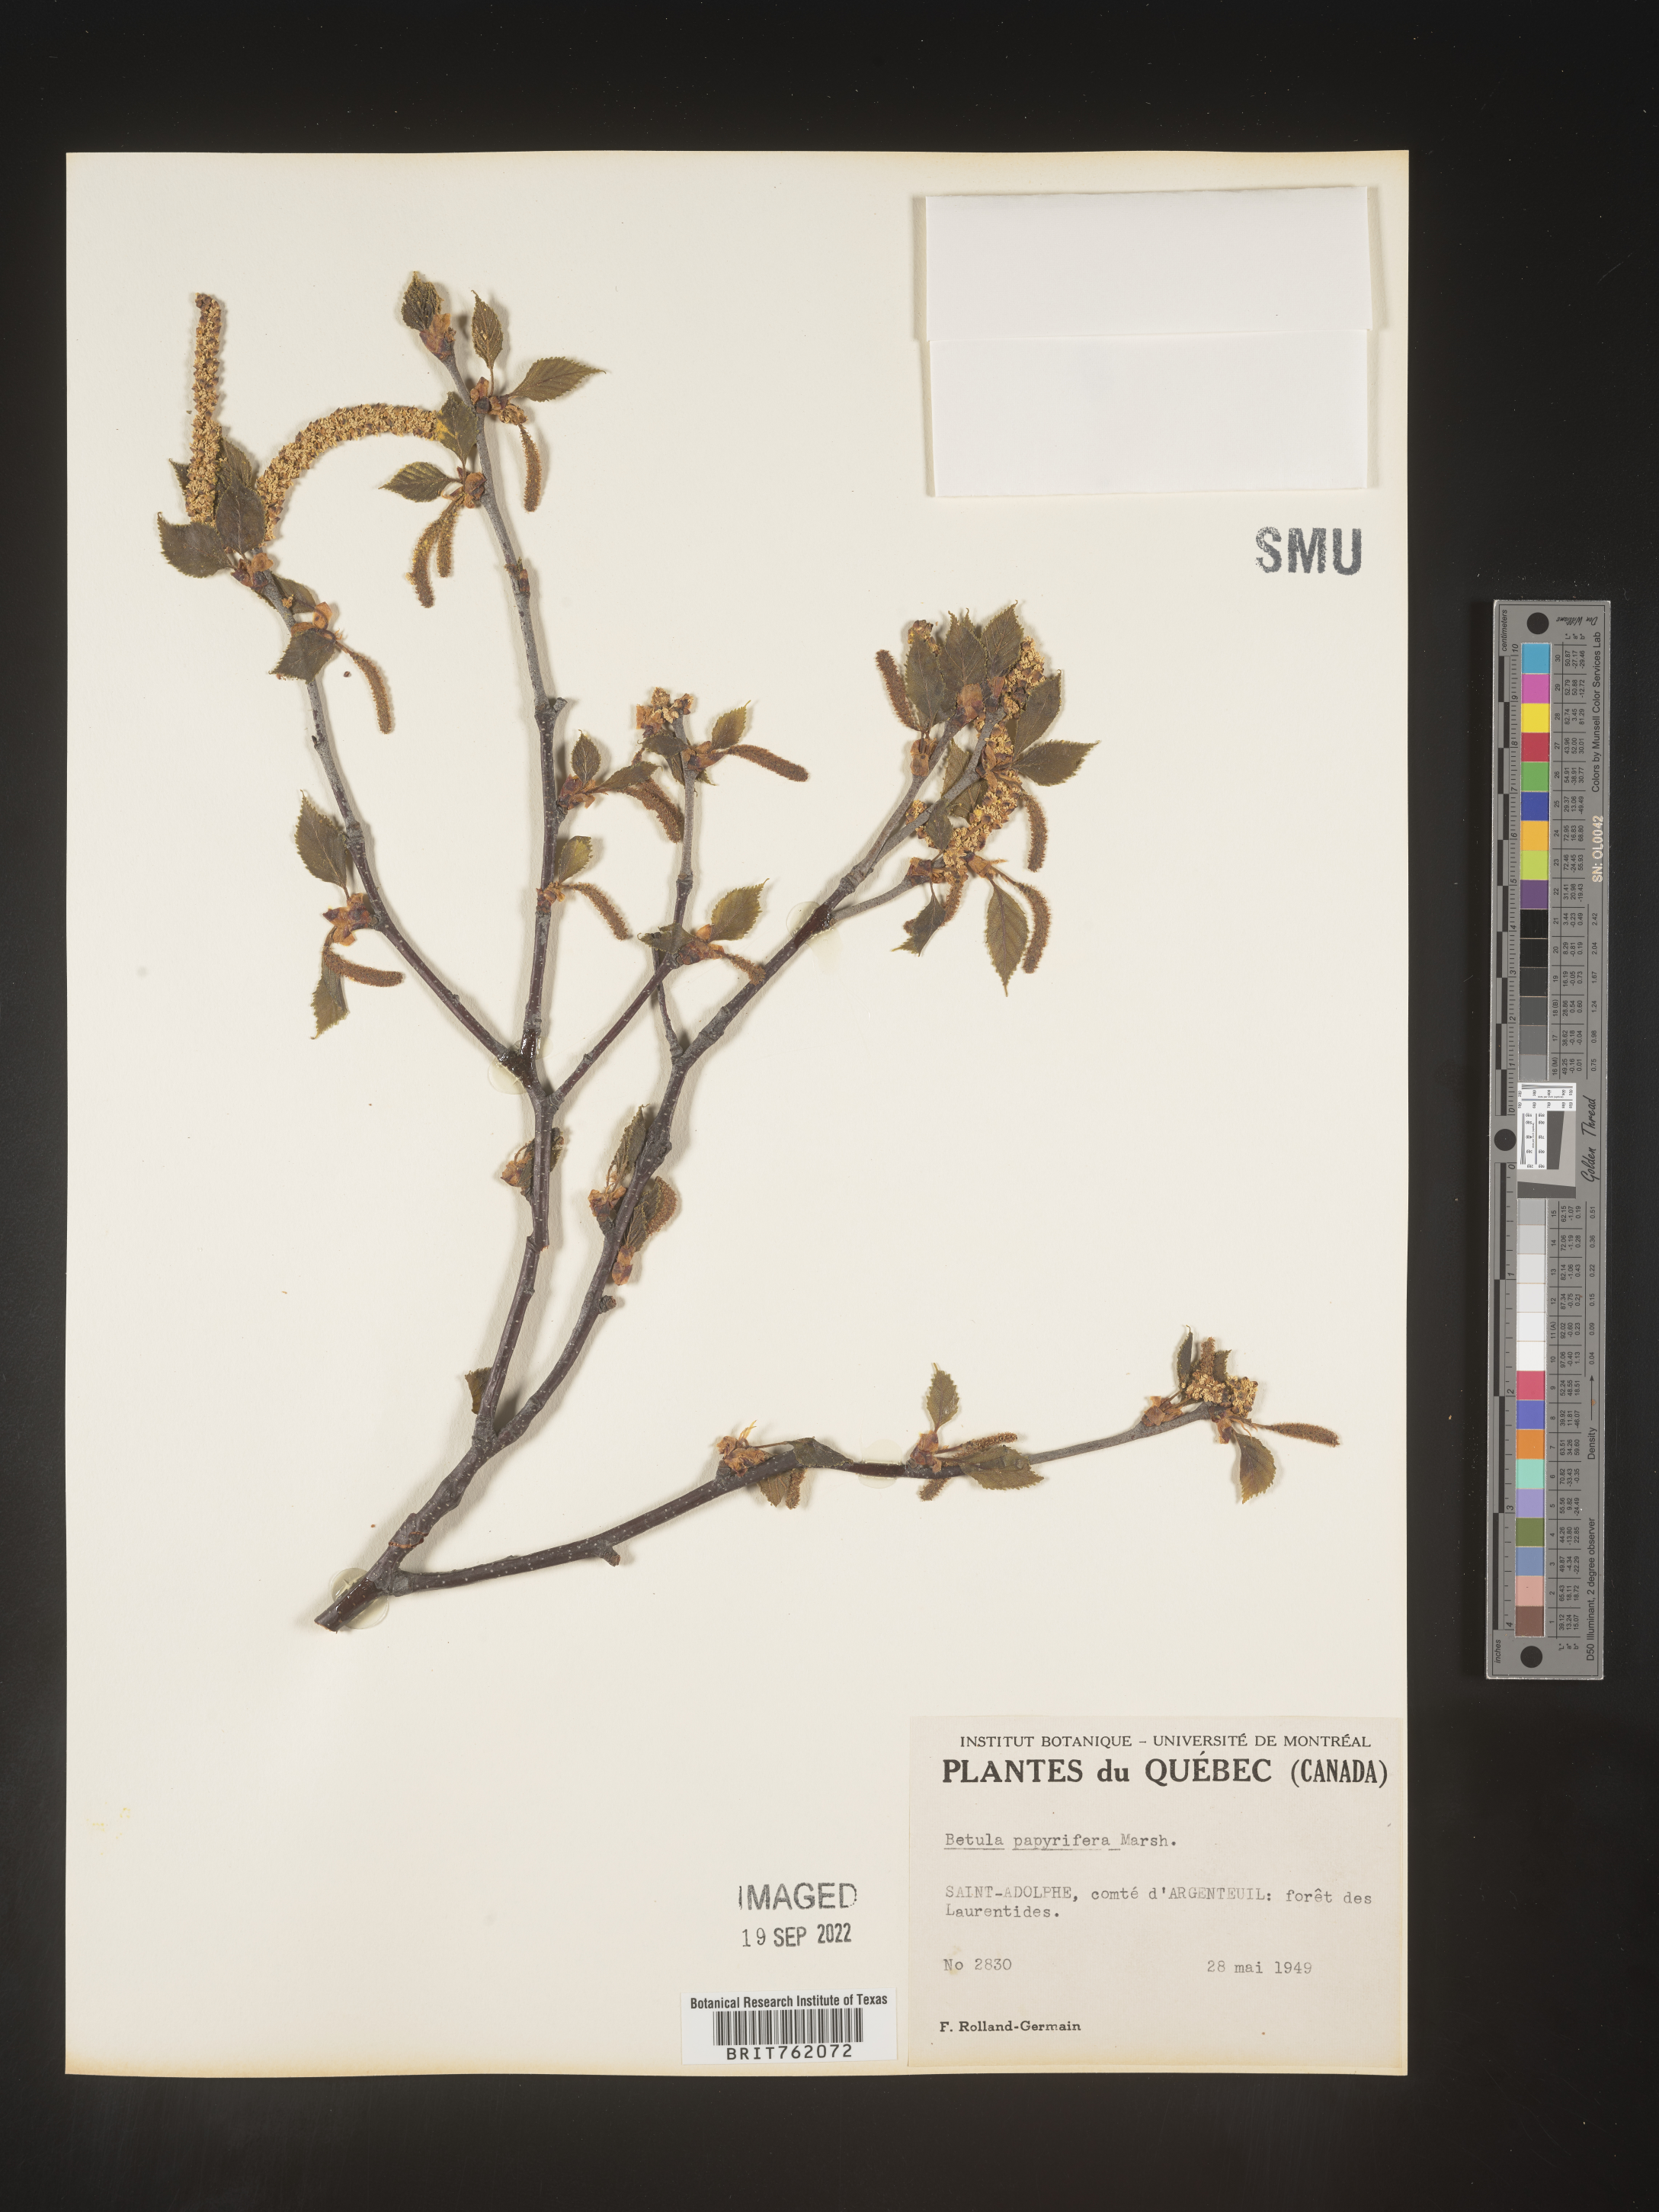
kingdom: Plantae
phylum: Tracheophyta
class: Magnoliopsida
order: Fagales
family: Betulaceae
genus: Betula
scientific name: Betula papyrifera
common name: Paper birch
